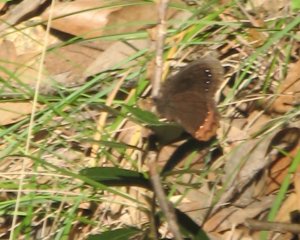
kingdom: Animalia
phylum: Arthropoda
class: Insecta
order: Lepidoptera
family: Nymphalidae
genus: Gyrocheilus
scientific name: Gyrocheilus patrobas
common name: Red-bordered Satyr
